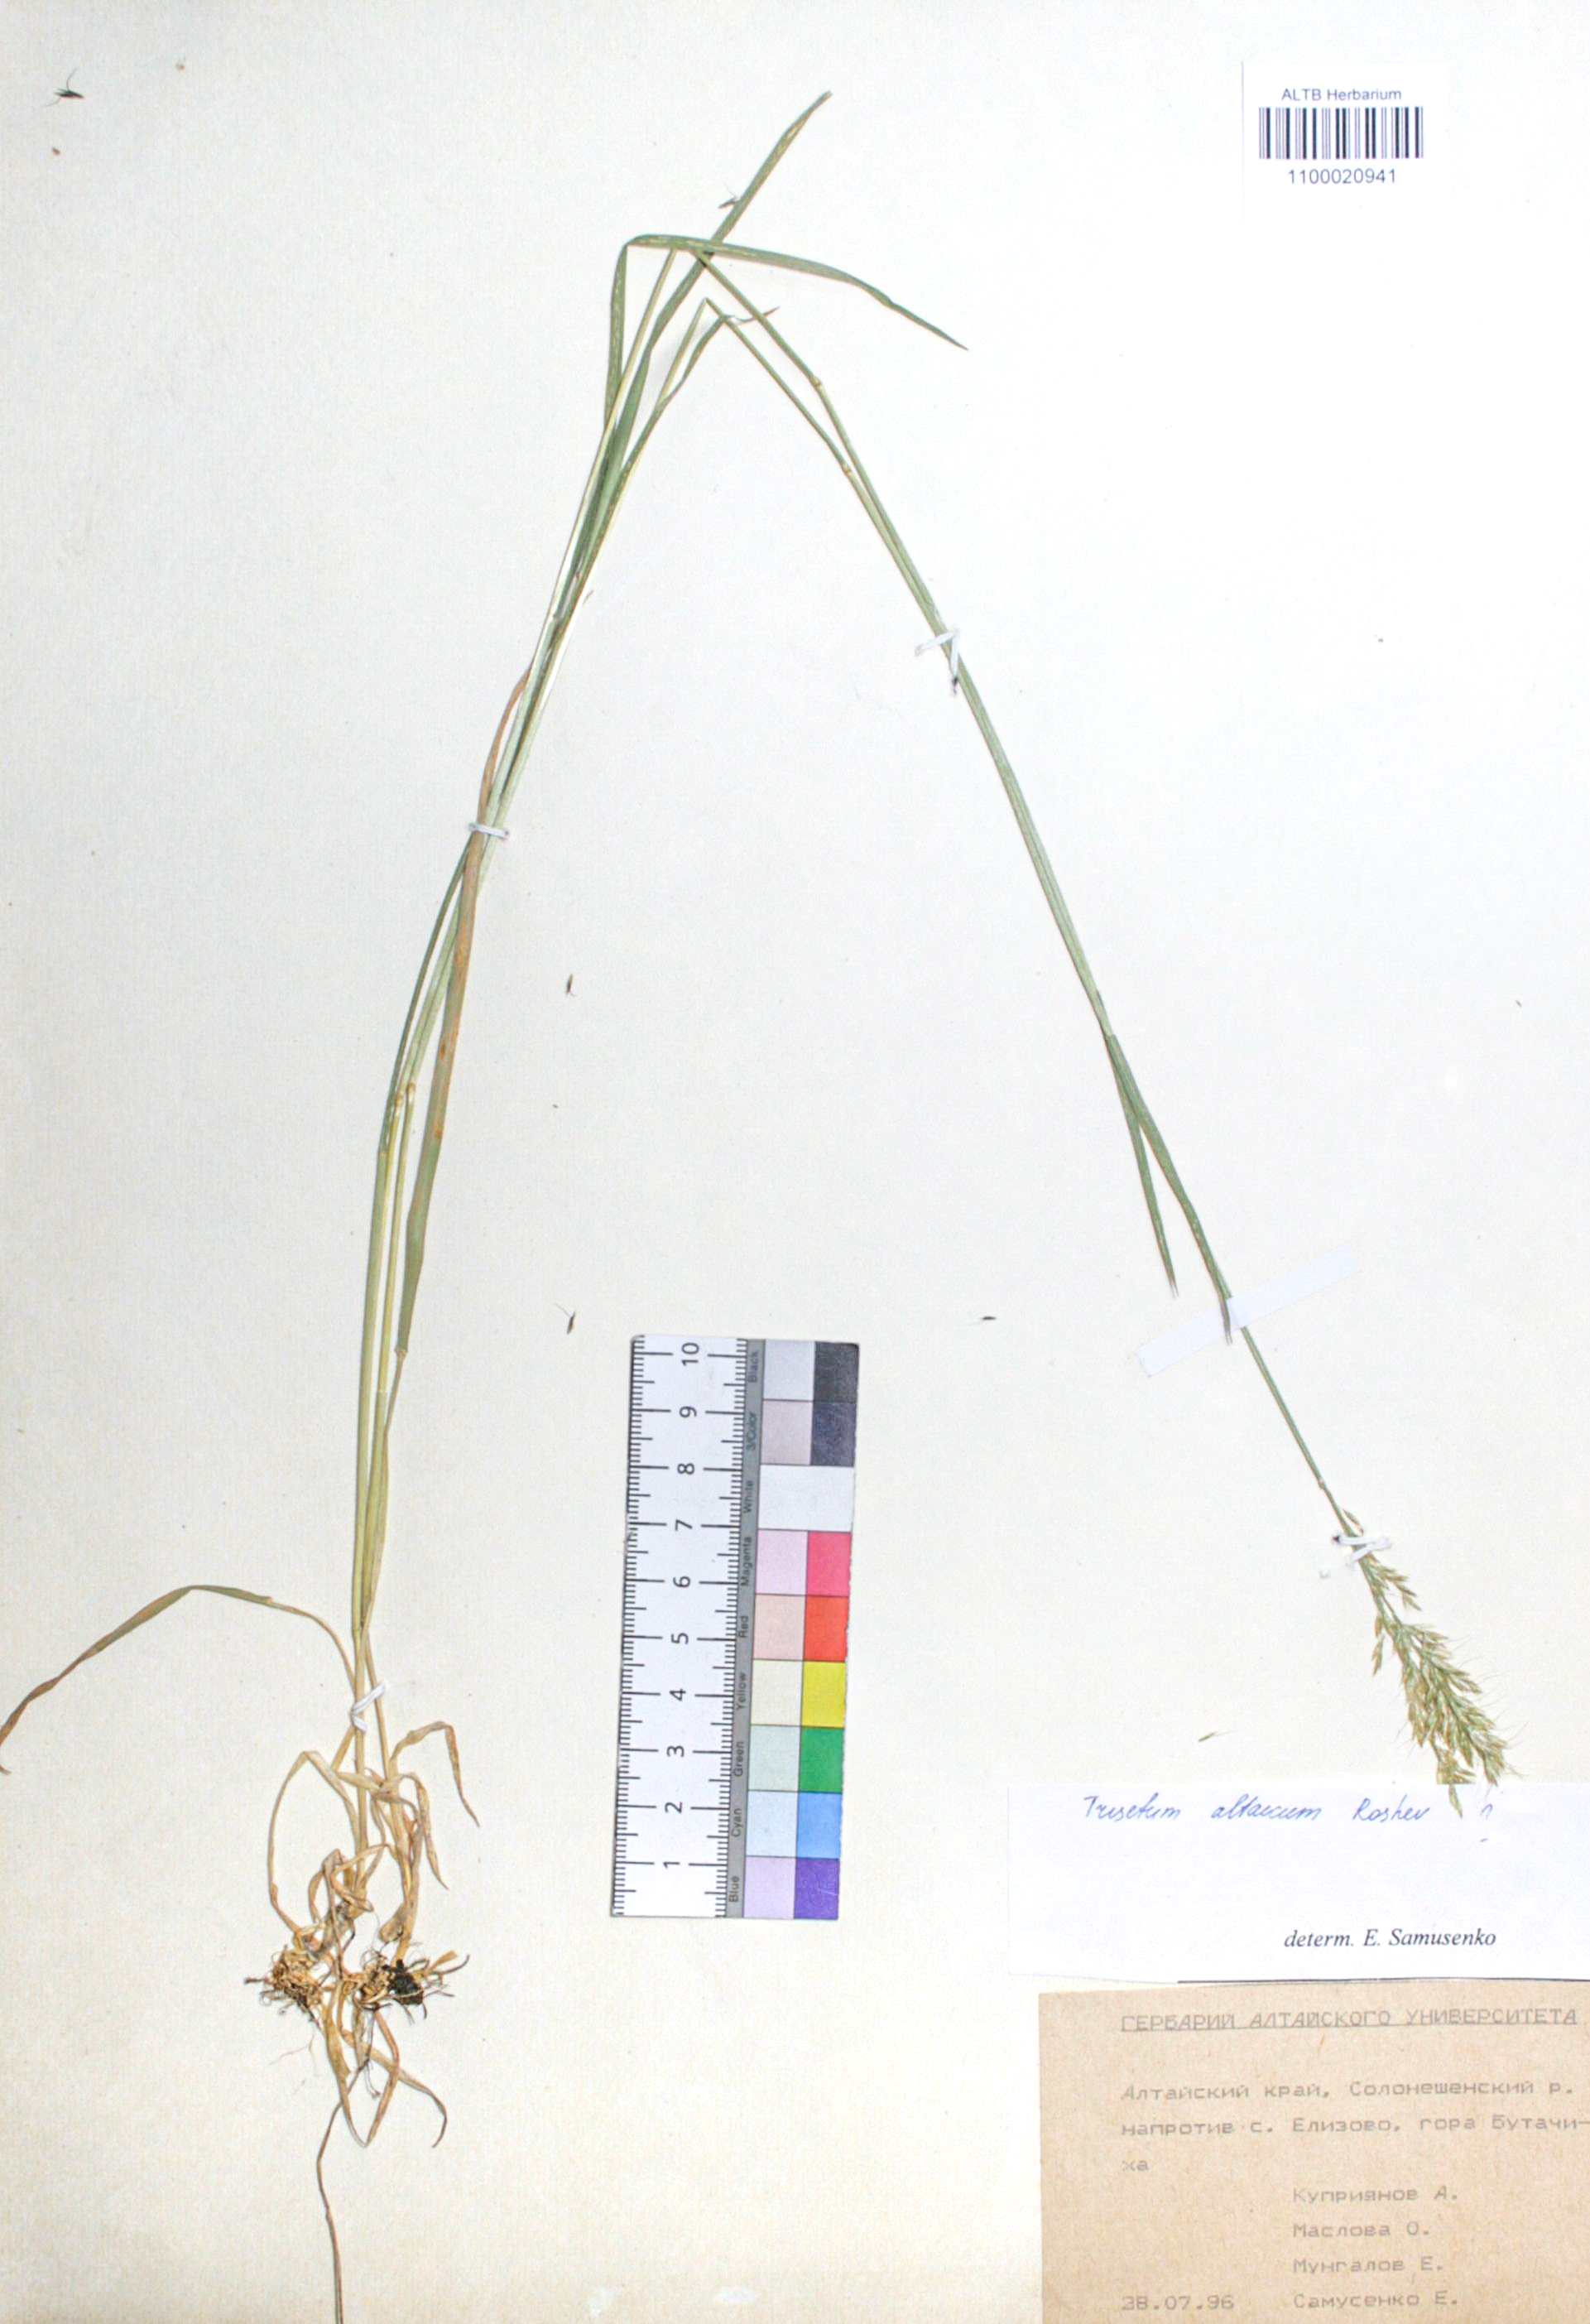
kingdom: Plantae
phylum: Tracheophyta
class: Liliopsida
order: Poales
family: Poaceae
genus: Trisetum
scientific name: Trisetum altaicum
